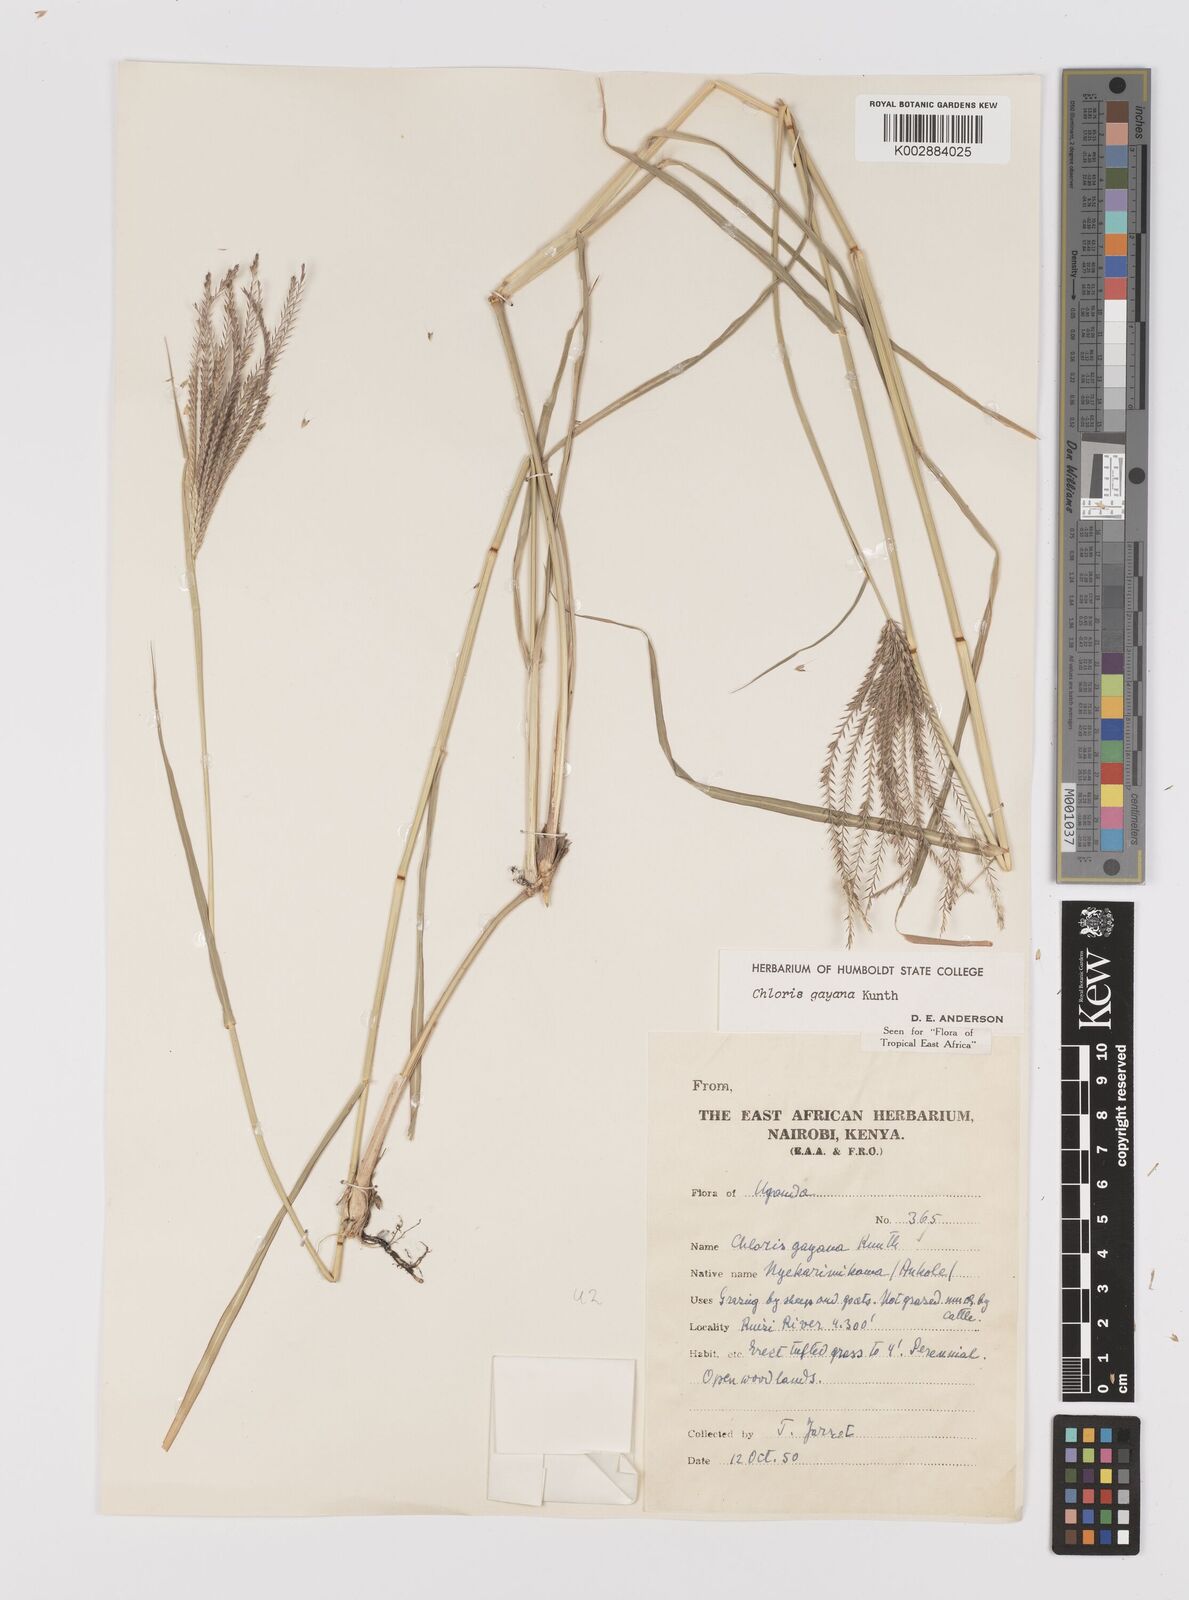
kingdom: Plantae
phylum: Tracheophyta
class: Liliopsida
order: Poales
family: Poaceae
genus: Chloris
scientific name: Chloris gayana
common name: Rhodes grass
